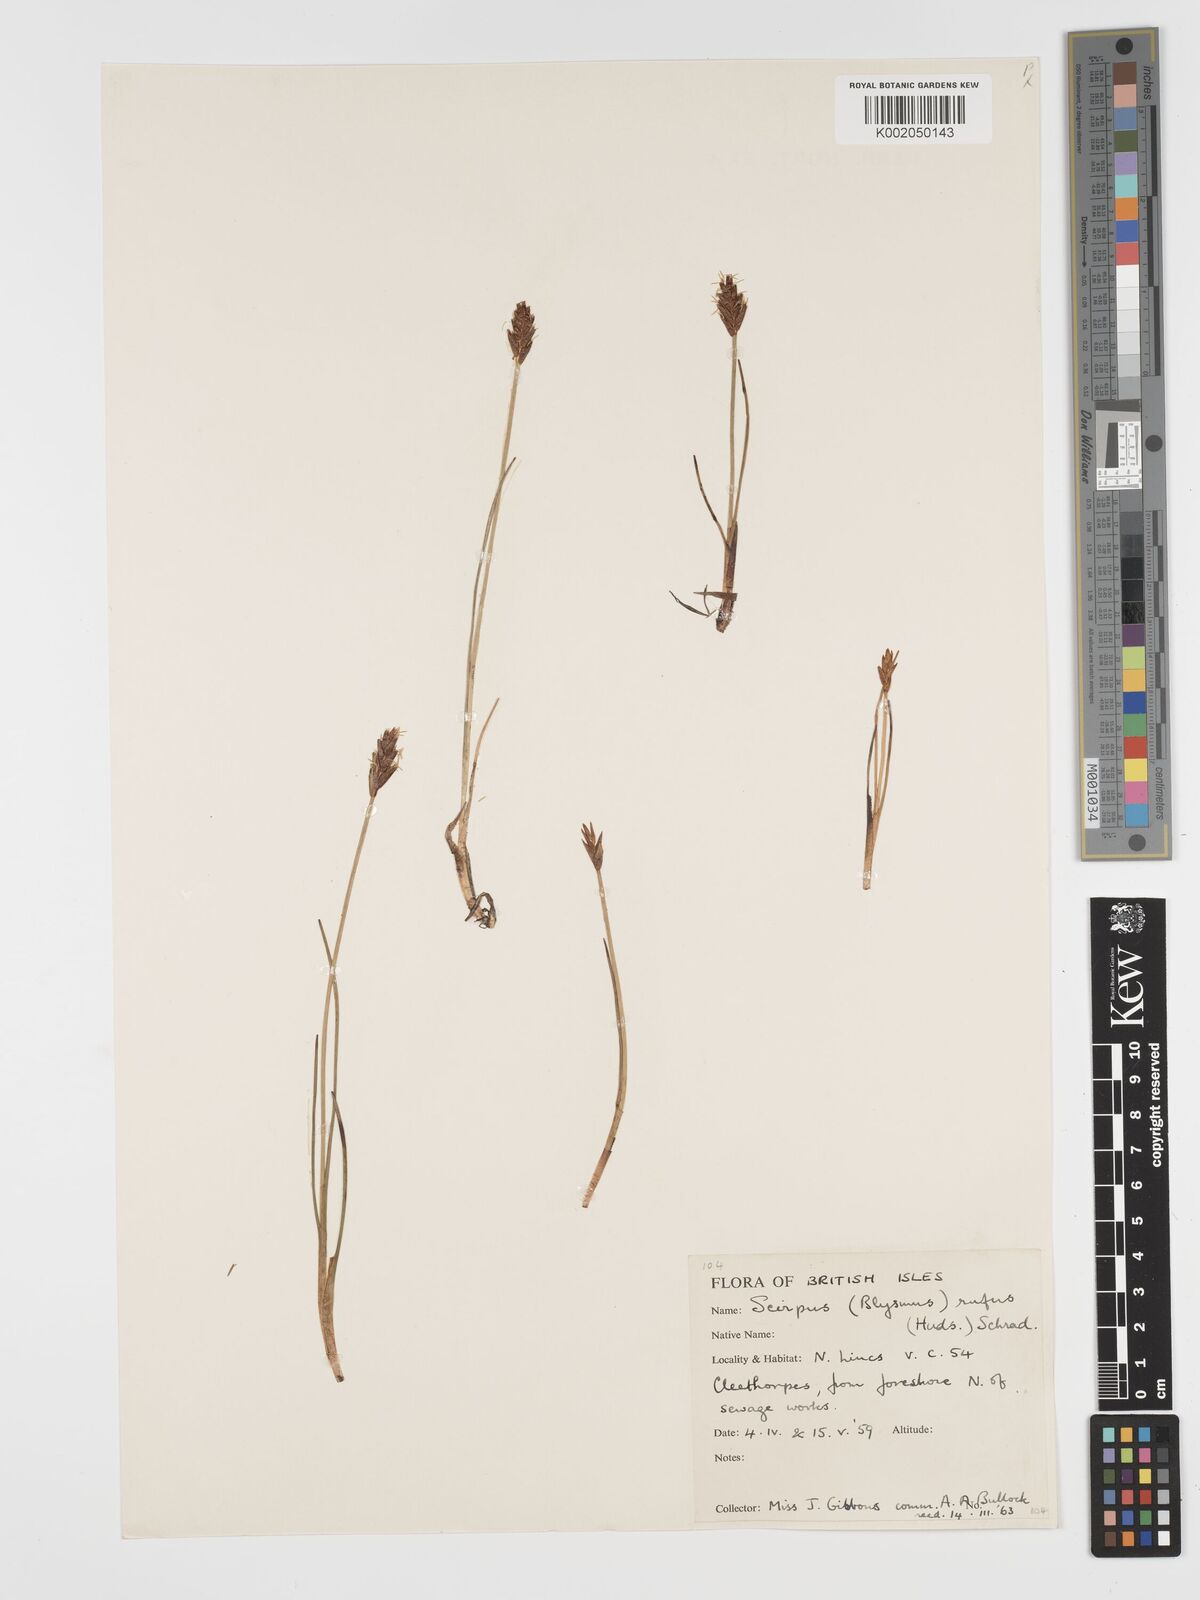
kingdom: Plantae
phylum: Tracheophyta
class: Liliopsida
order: Poales
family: Cyperaceae
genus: Blysmus
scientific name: Blysmus rufus
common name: Saltmarsh flat-sedge
